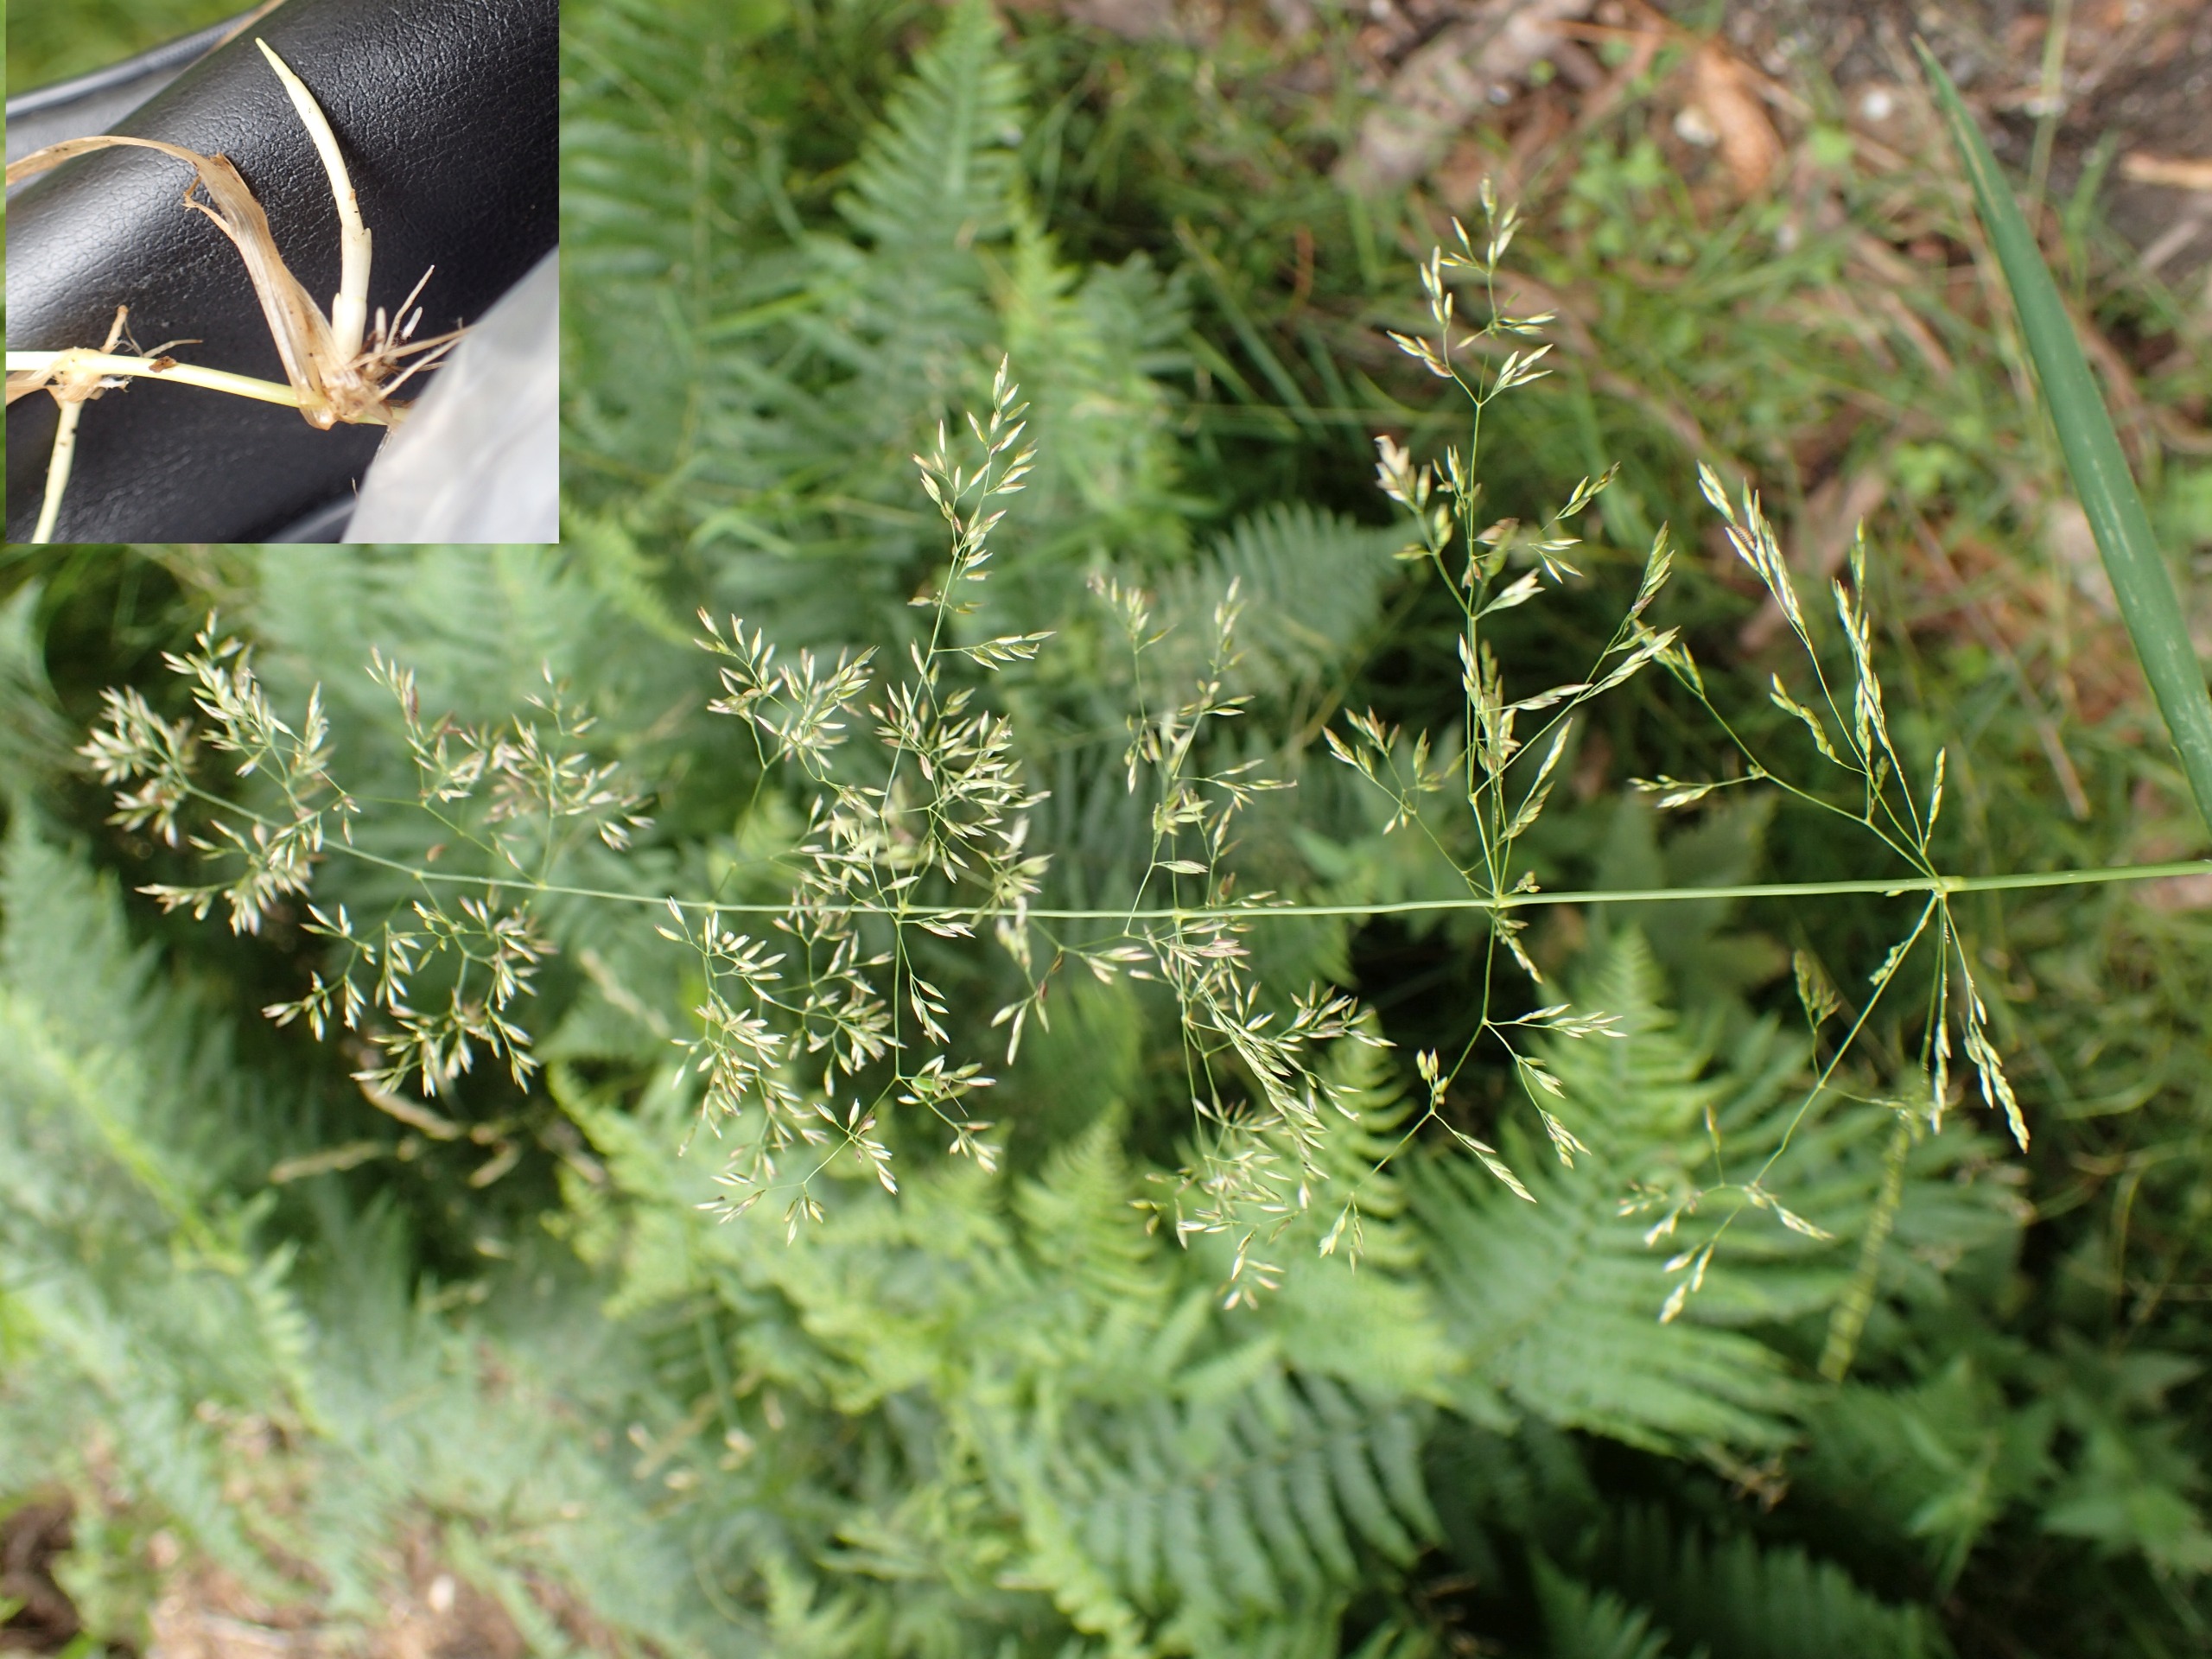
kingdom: Plantae
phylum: Tracheophyta
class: Liliopsida
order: Poales
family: Poaceae
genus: Agrostis
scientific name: Agrostis gigantea
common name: Stortoppet hvene
